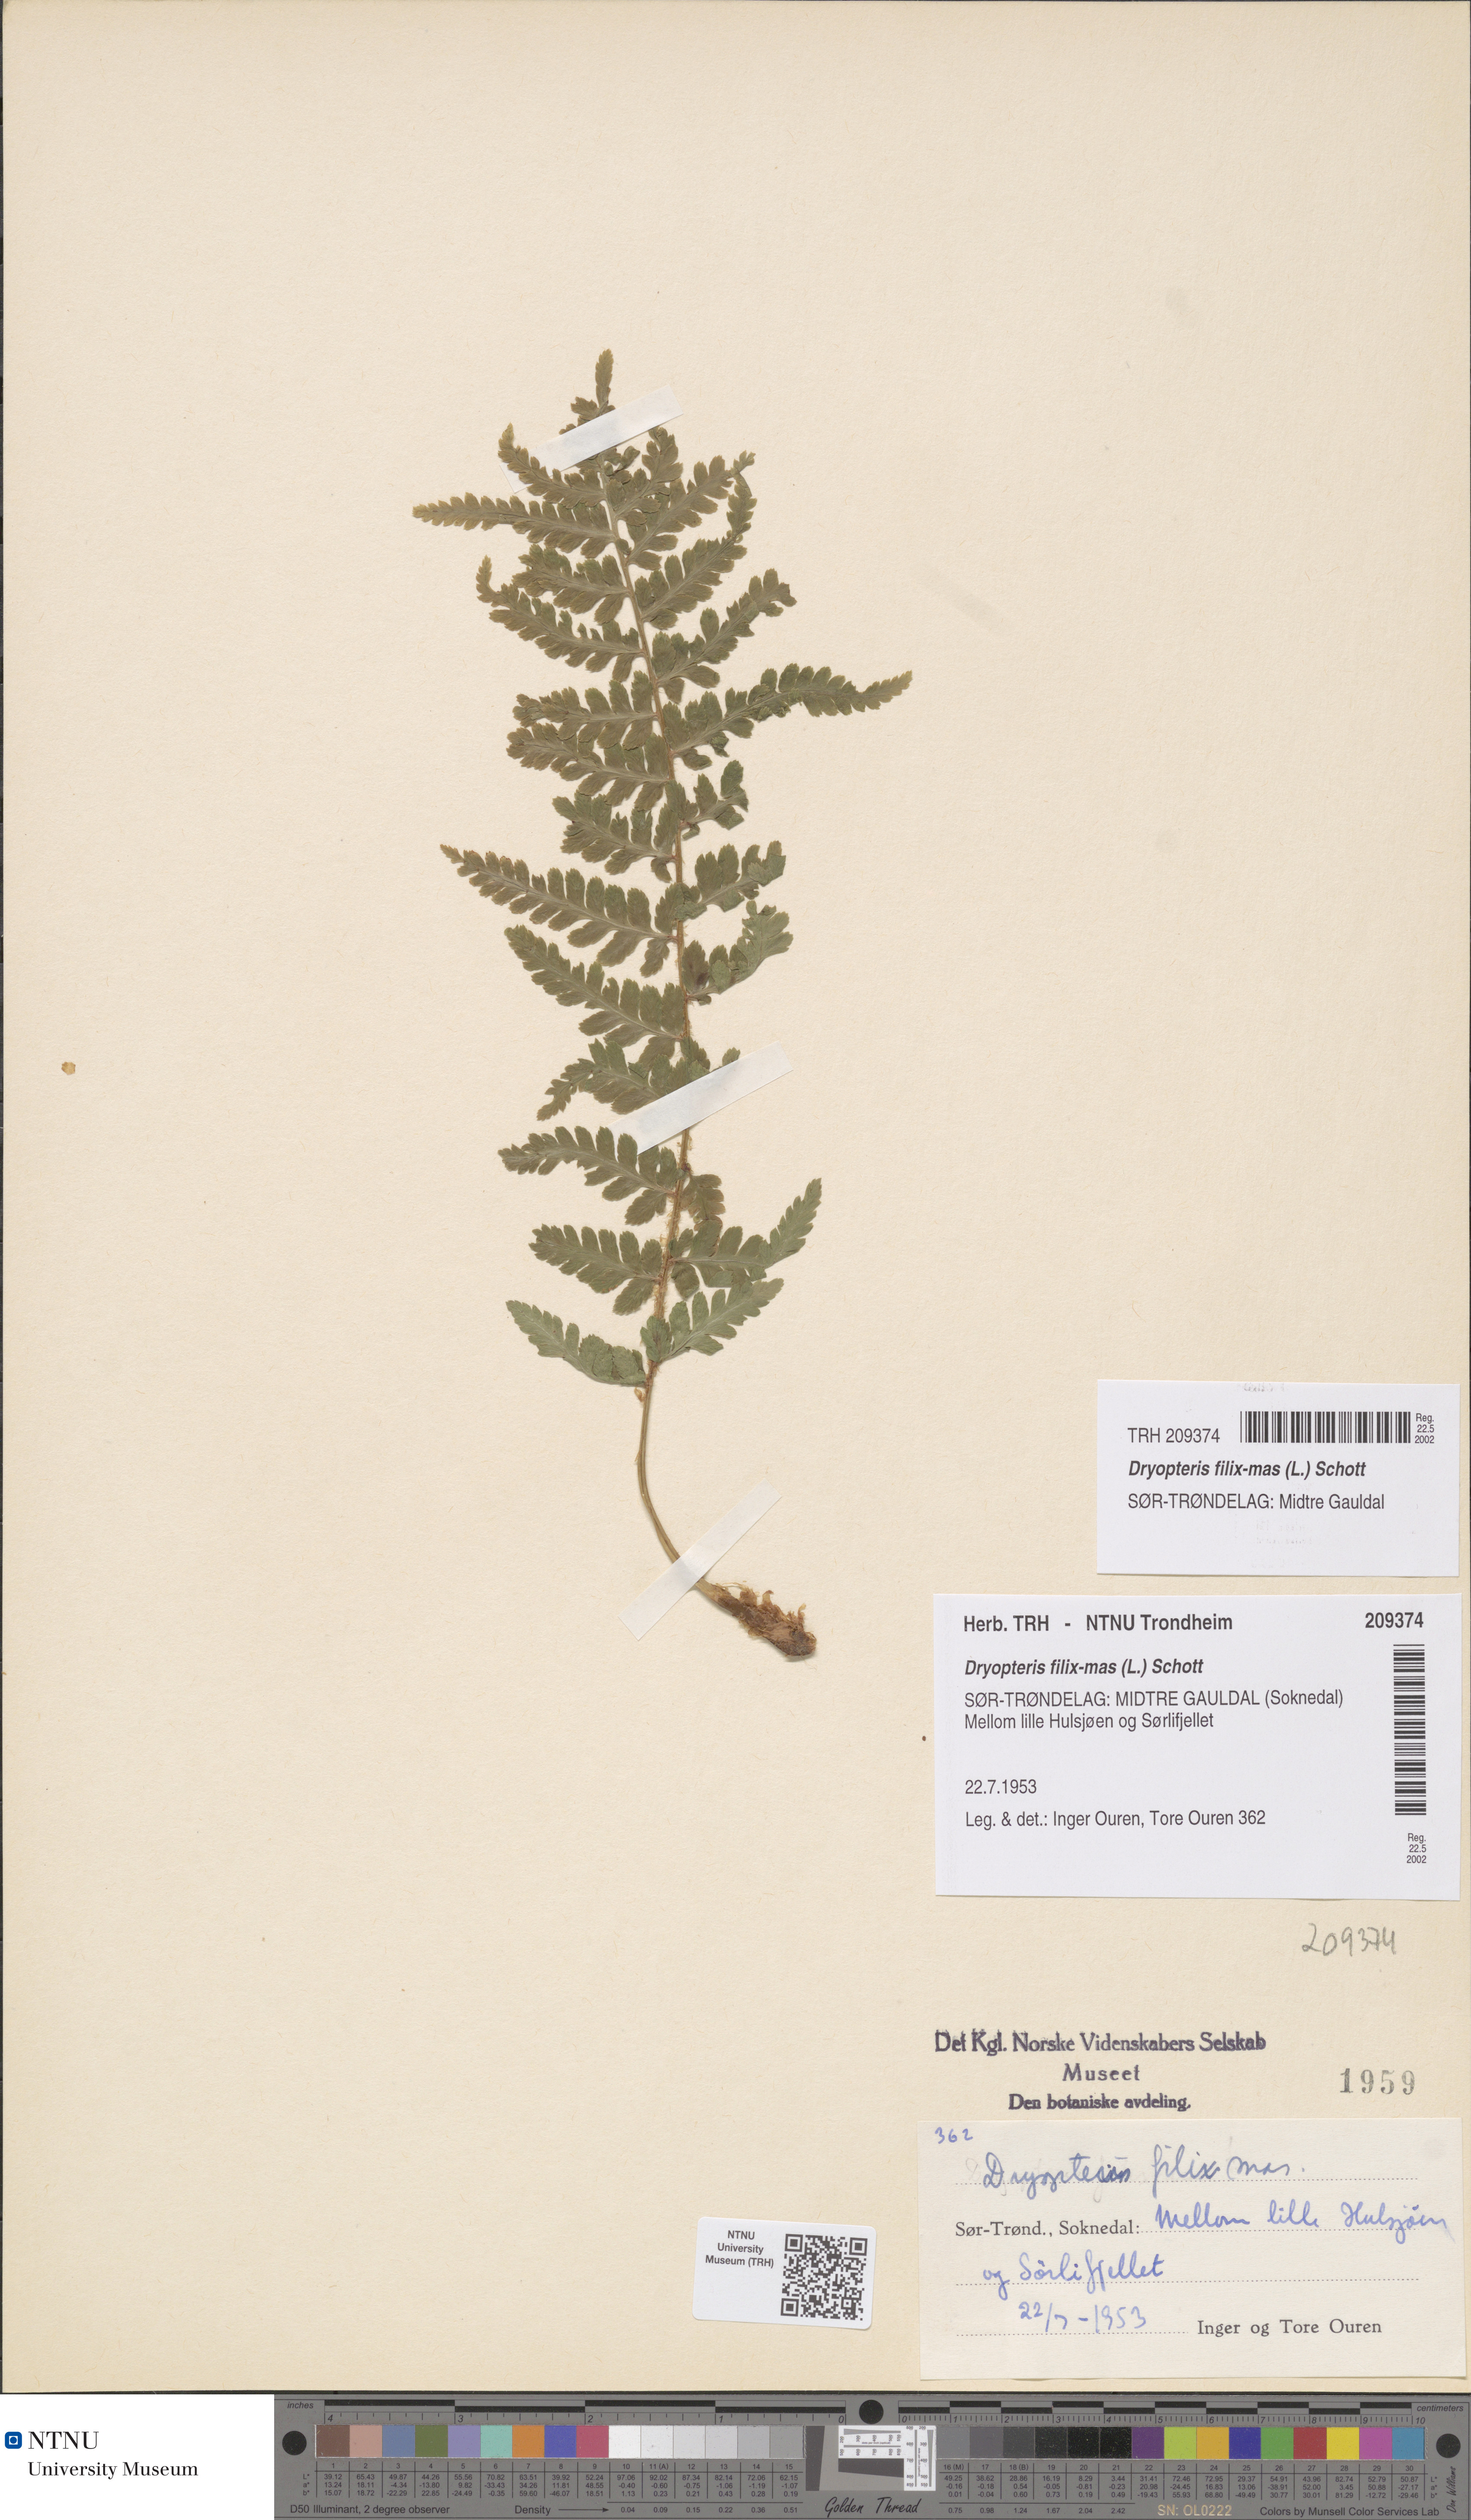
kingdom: Plantae
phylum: Tracheophyta
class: Polypodiopsida
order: Polypodiales
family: Dryopteridaceae
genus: Dryopteris
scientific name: Dryopteris filix-mas
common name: Male fern
